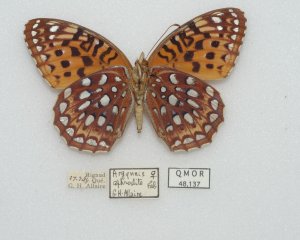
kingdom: Animalia
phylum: Arthropoda
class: Insecta
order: Lepidoptera
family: Nymphalidae
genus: Speyeria
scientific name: Speyeria aphrodite
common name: Aphrodite Fritillary
